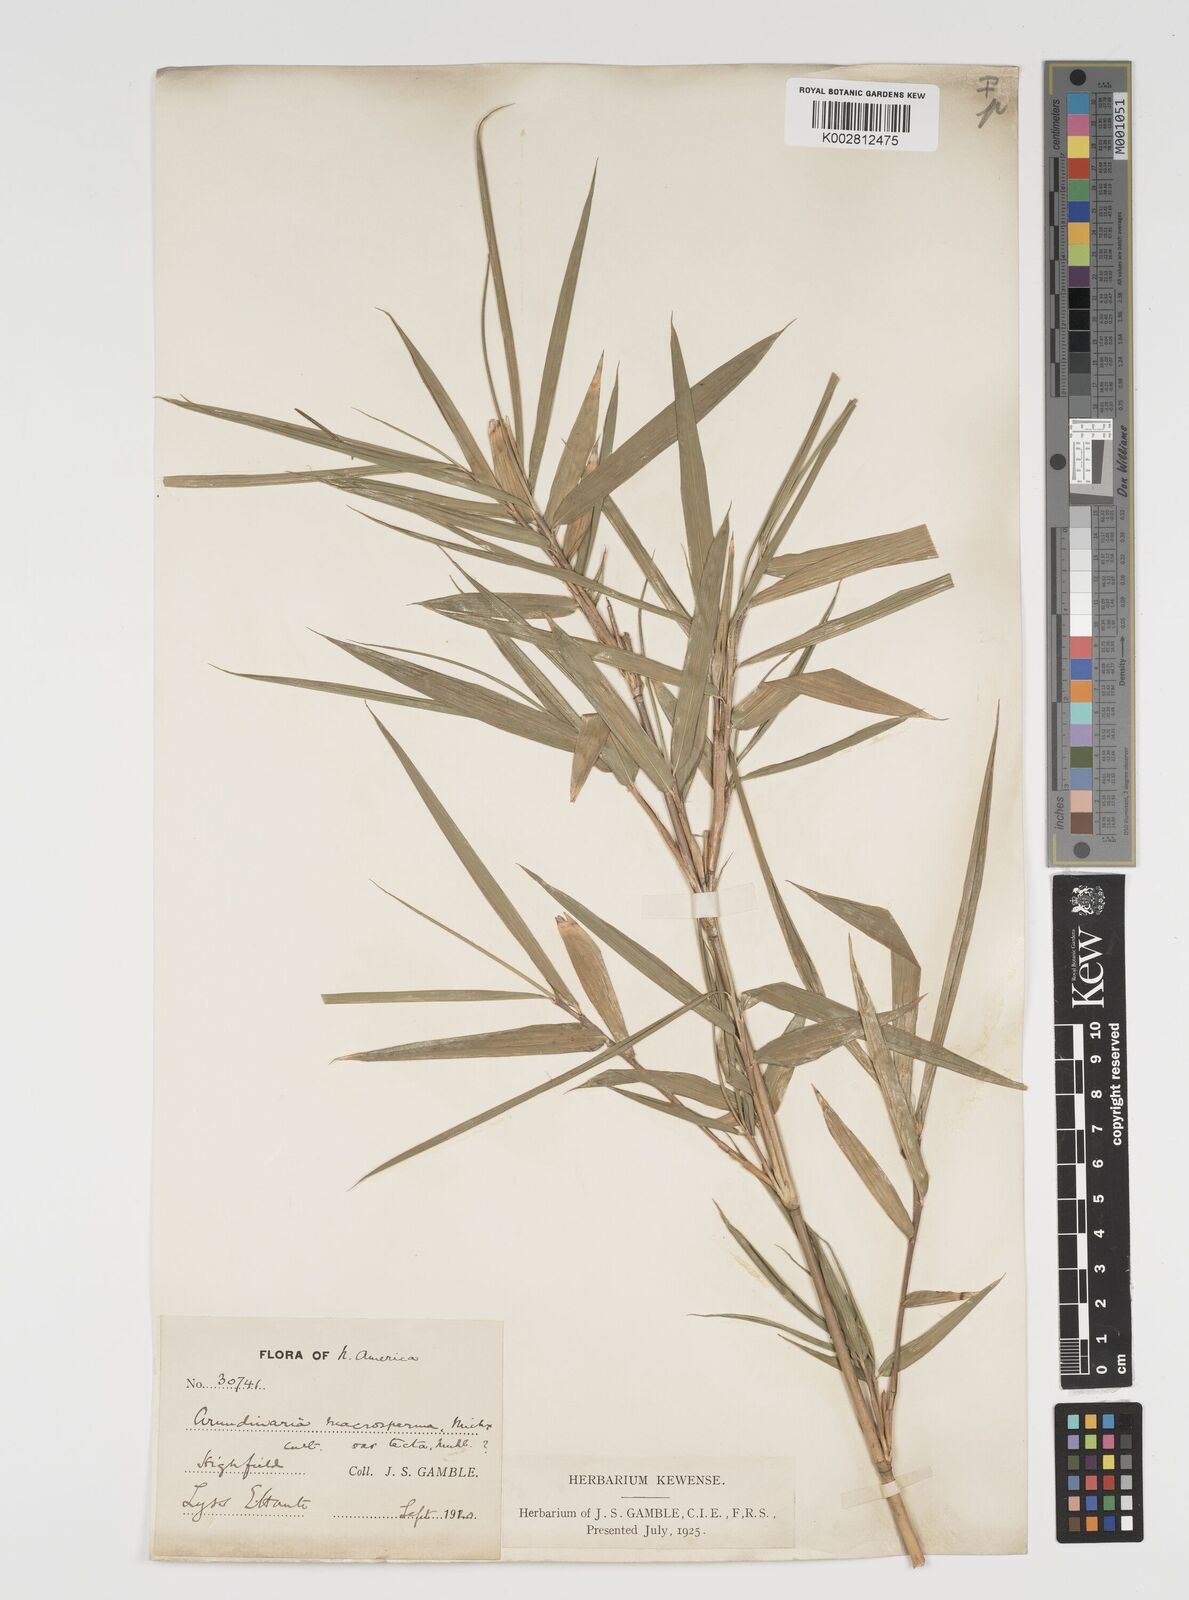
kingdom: Plantae
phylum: Tracheophyta
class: Liliopsida
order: Poales
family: Poaceae
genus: Arundinaria
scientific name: Arundinaria tecta
